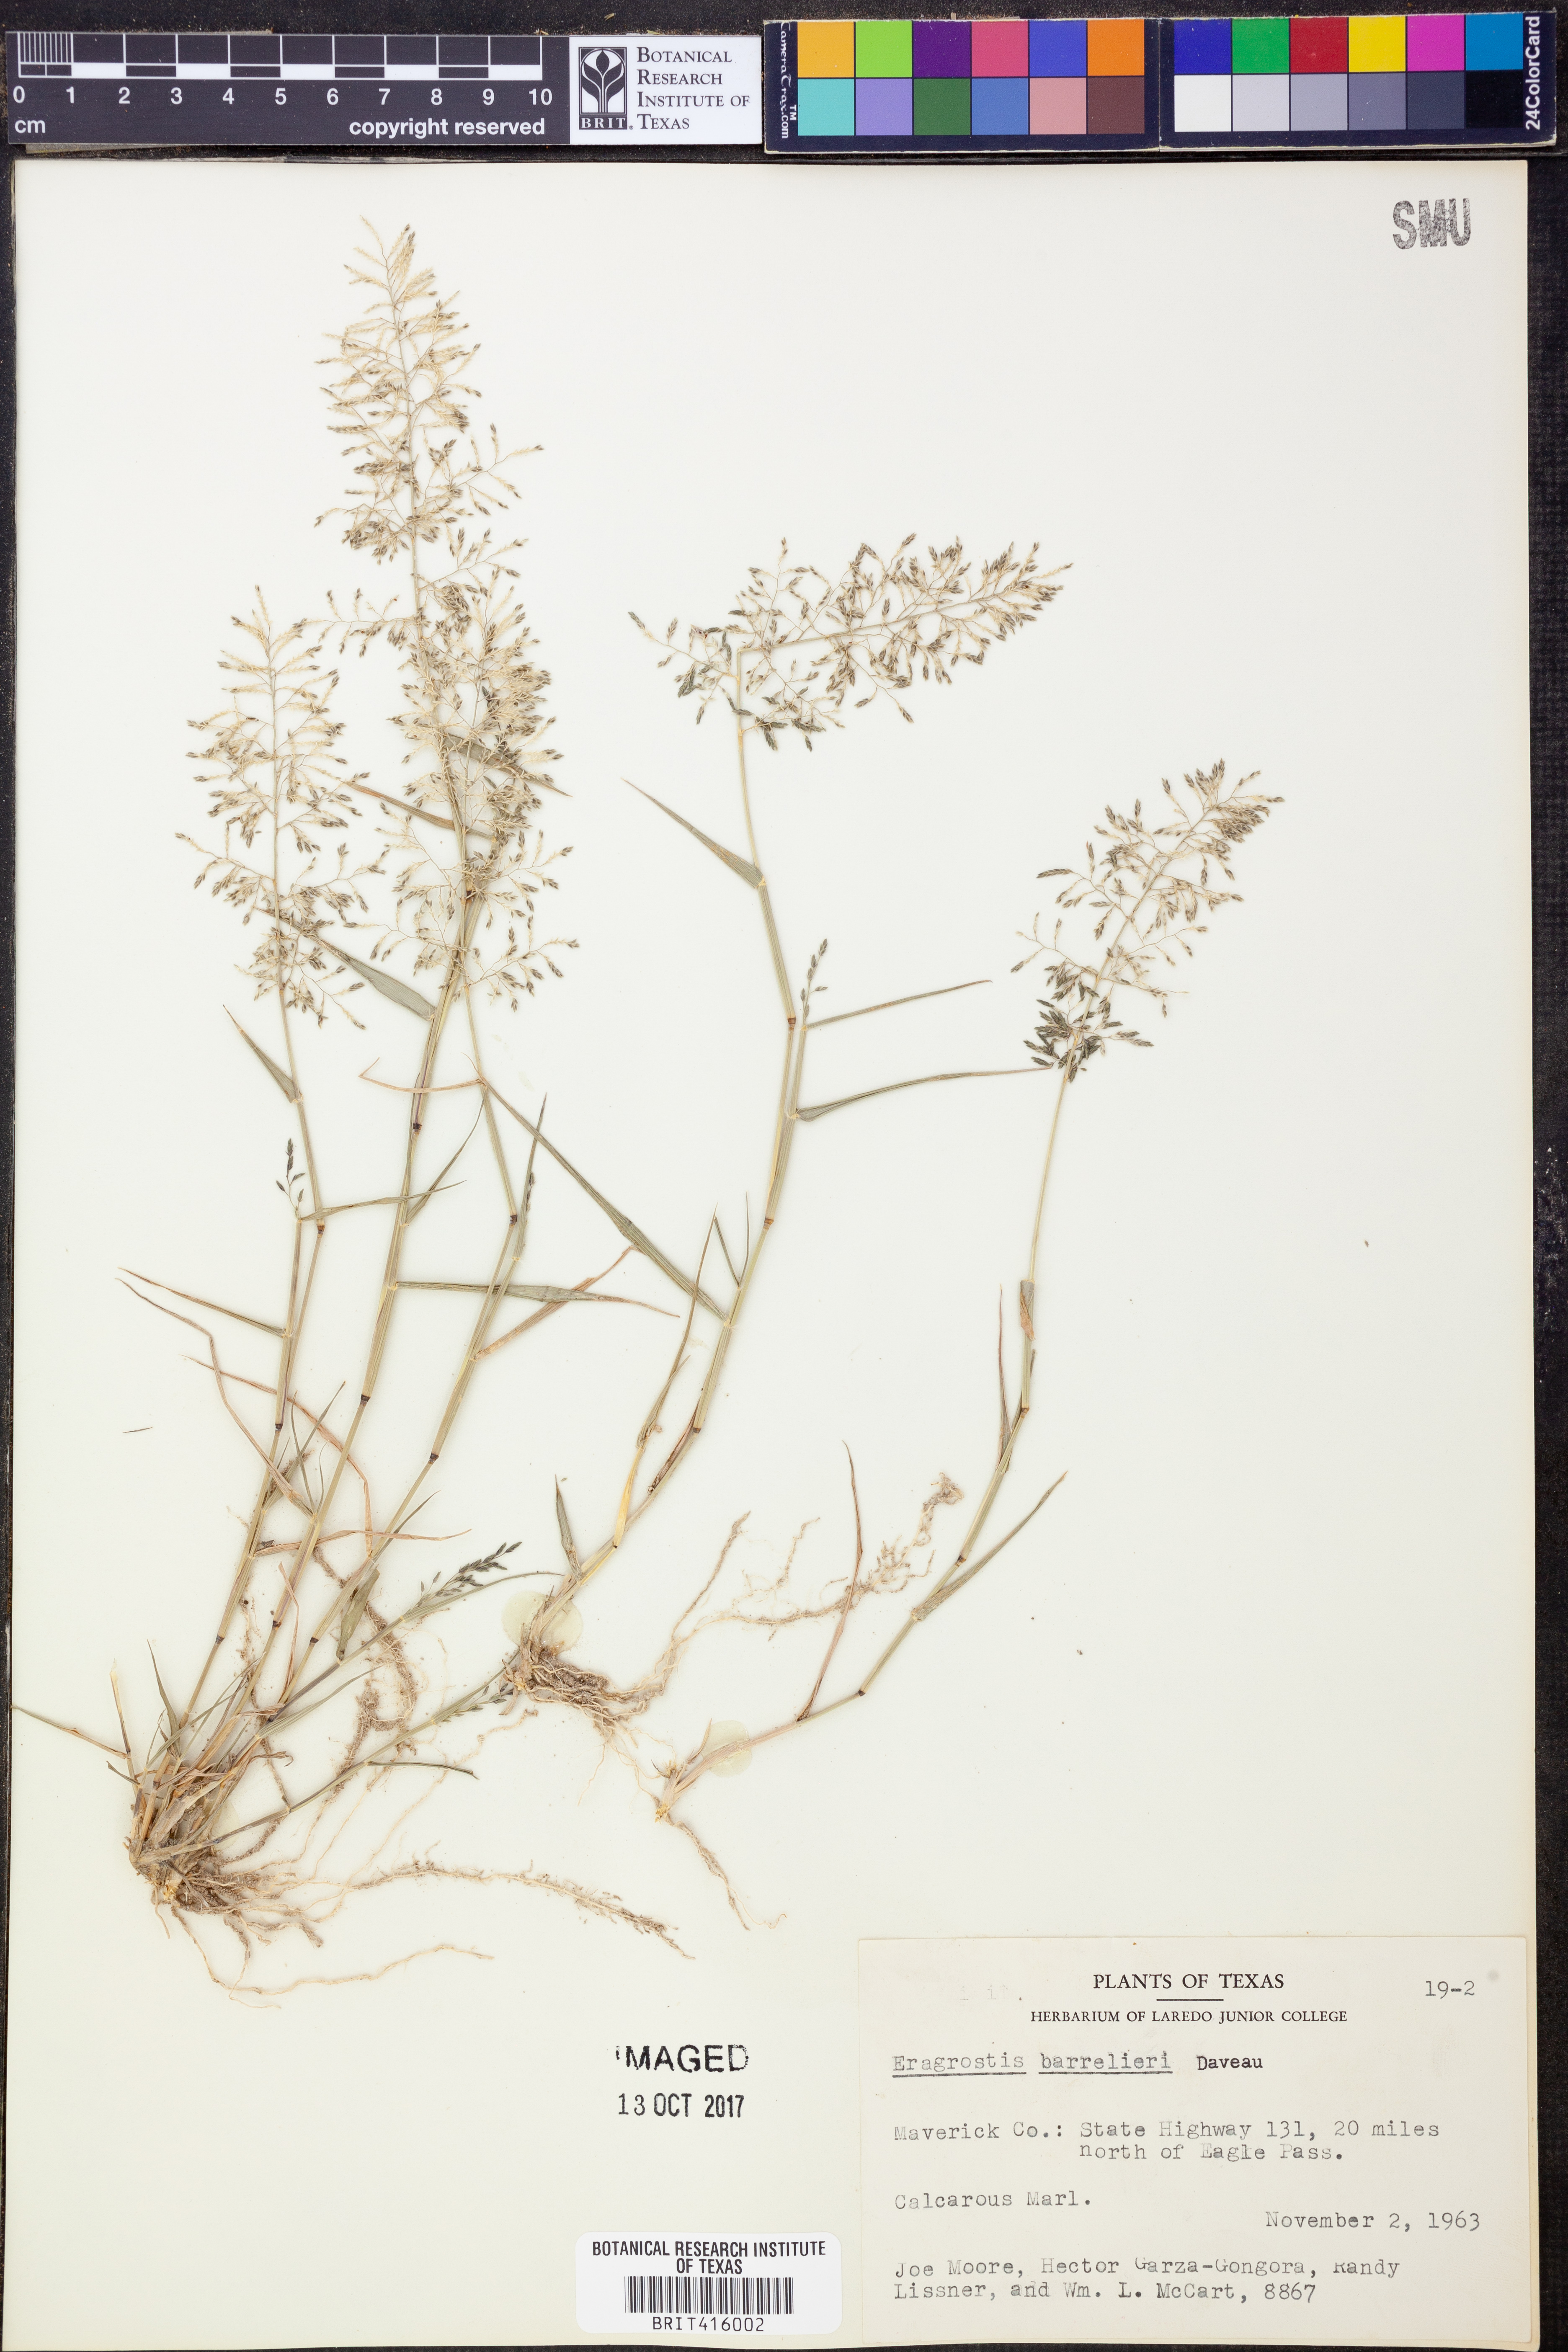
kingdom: Plantae
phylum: Tracheophyta
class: Liliopsida
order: Poales
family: Poaceae
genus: Eragrostis
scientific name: Eragrostis barrelieri
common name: Mediterranean lovegrass
